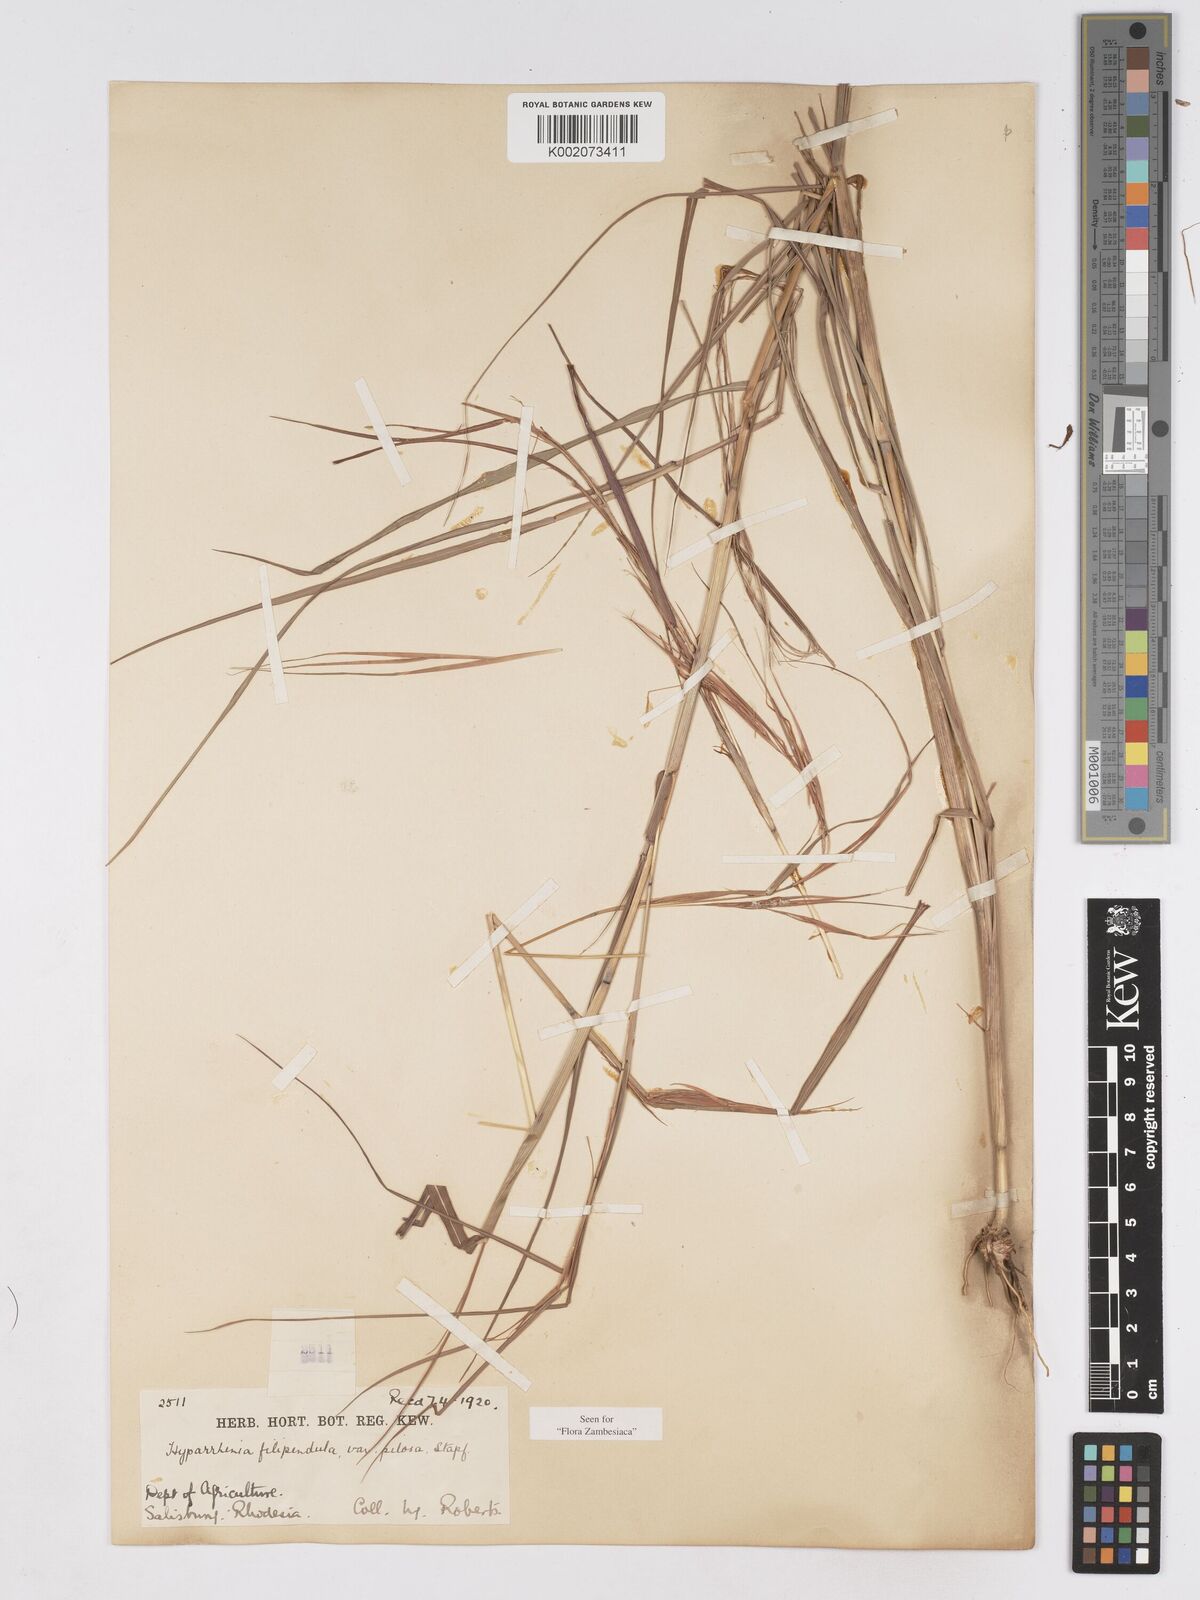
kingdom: Plantae
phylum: Tracheophyta
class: Liliopsida
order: Poales
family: Poaceae
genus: Hyparrhenia
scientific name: Hyparrhenia filipendula
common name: Tambookie grass
